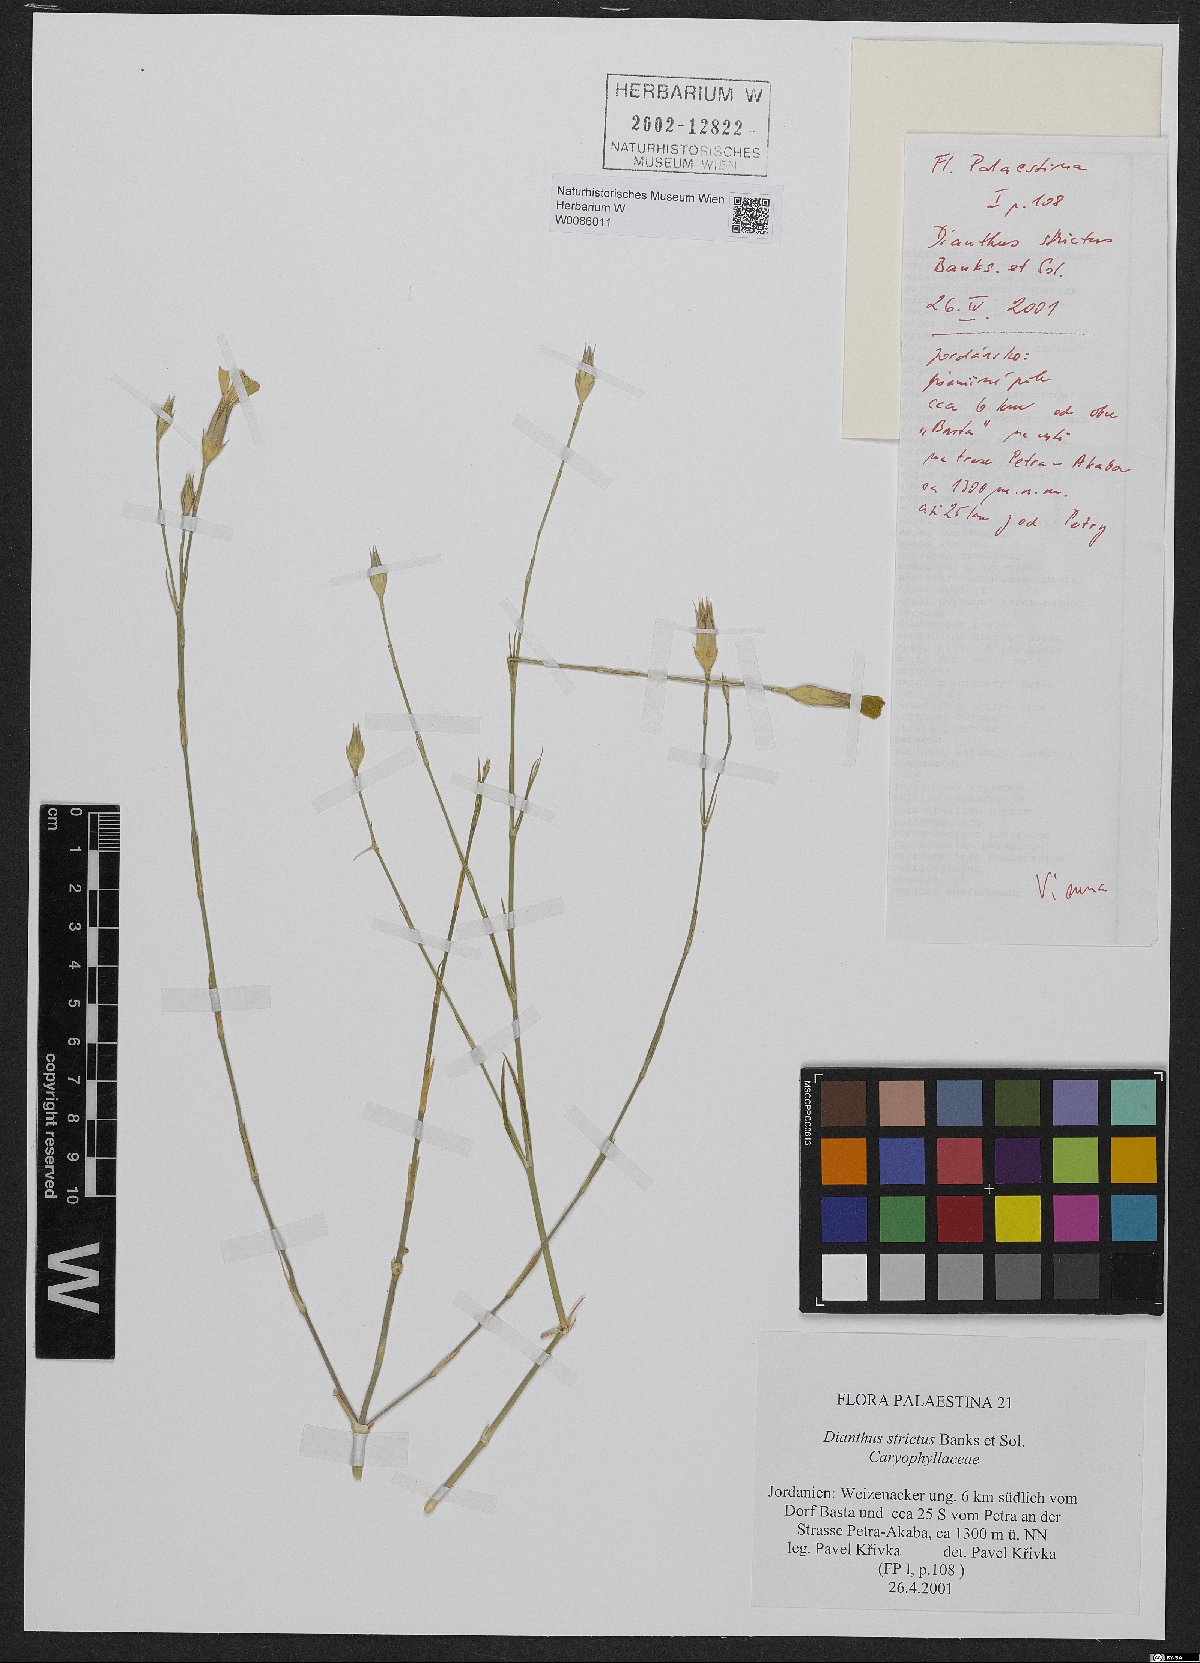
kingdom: Plantae
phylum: Tracheophyta
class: Magnoliopsida
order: Caryophyllales
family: Caryophyllaceae
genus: Dianthus
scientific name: Dianthus strictus
